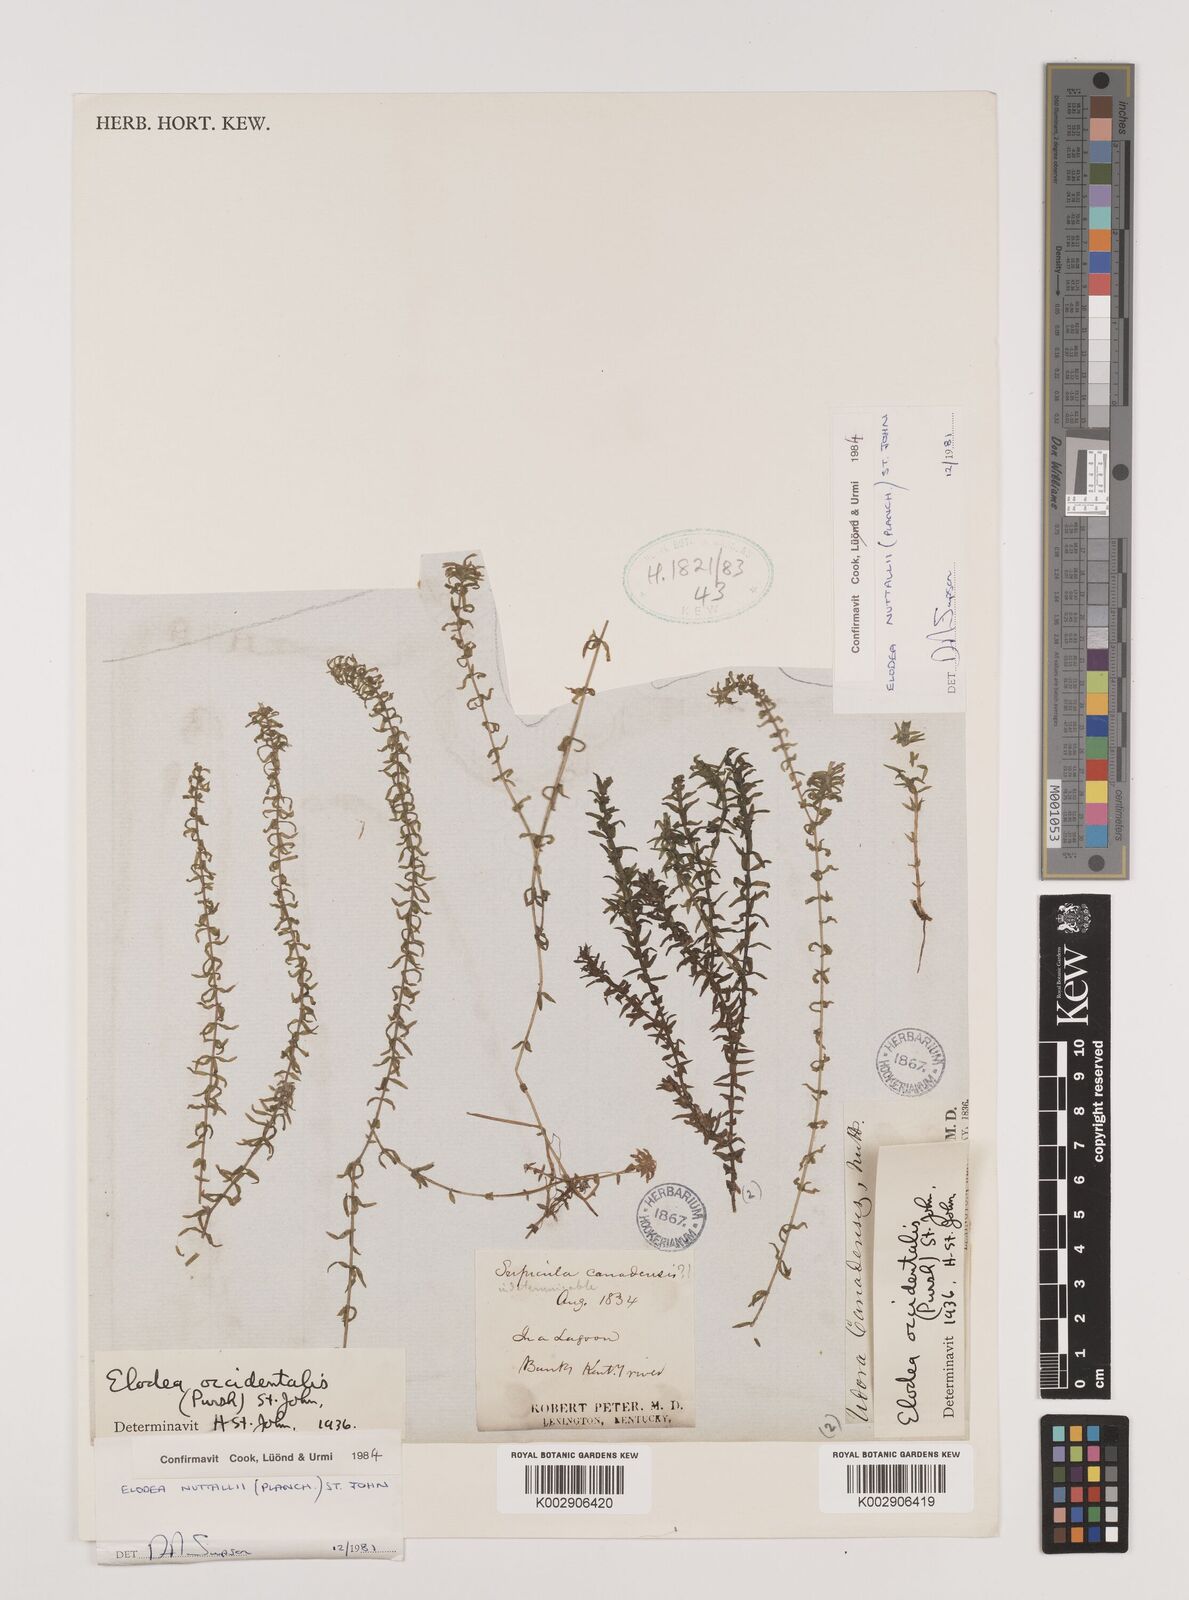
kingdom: Plantae
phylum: Tracheophyta
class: Liliopsida
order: Alismatales
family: Hydrocharitaceae
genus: Elodea
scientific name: Elodea nuttallii
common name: Nuttall's waterweed
